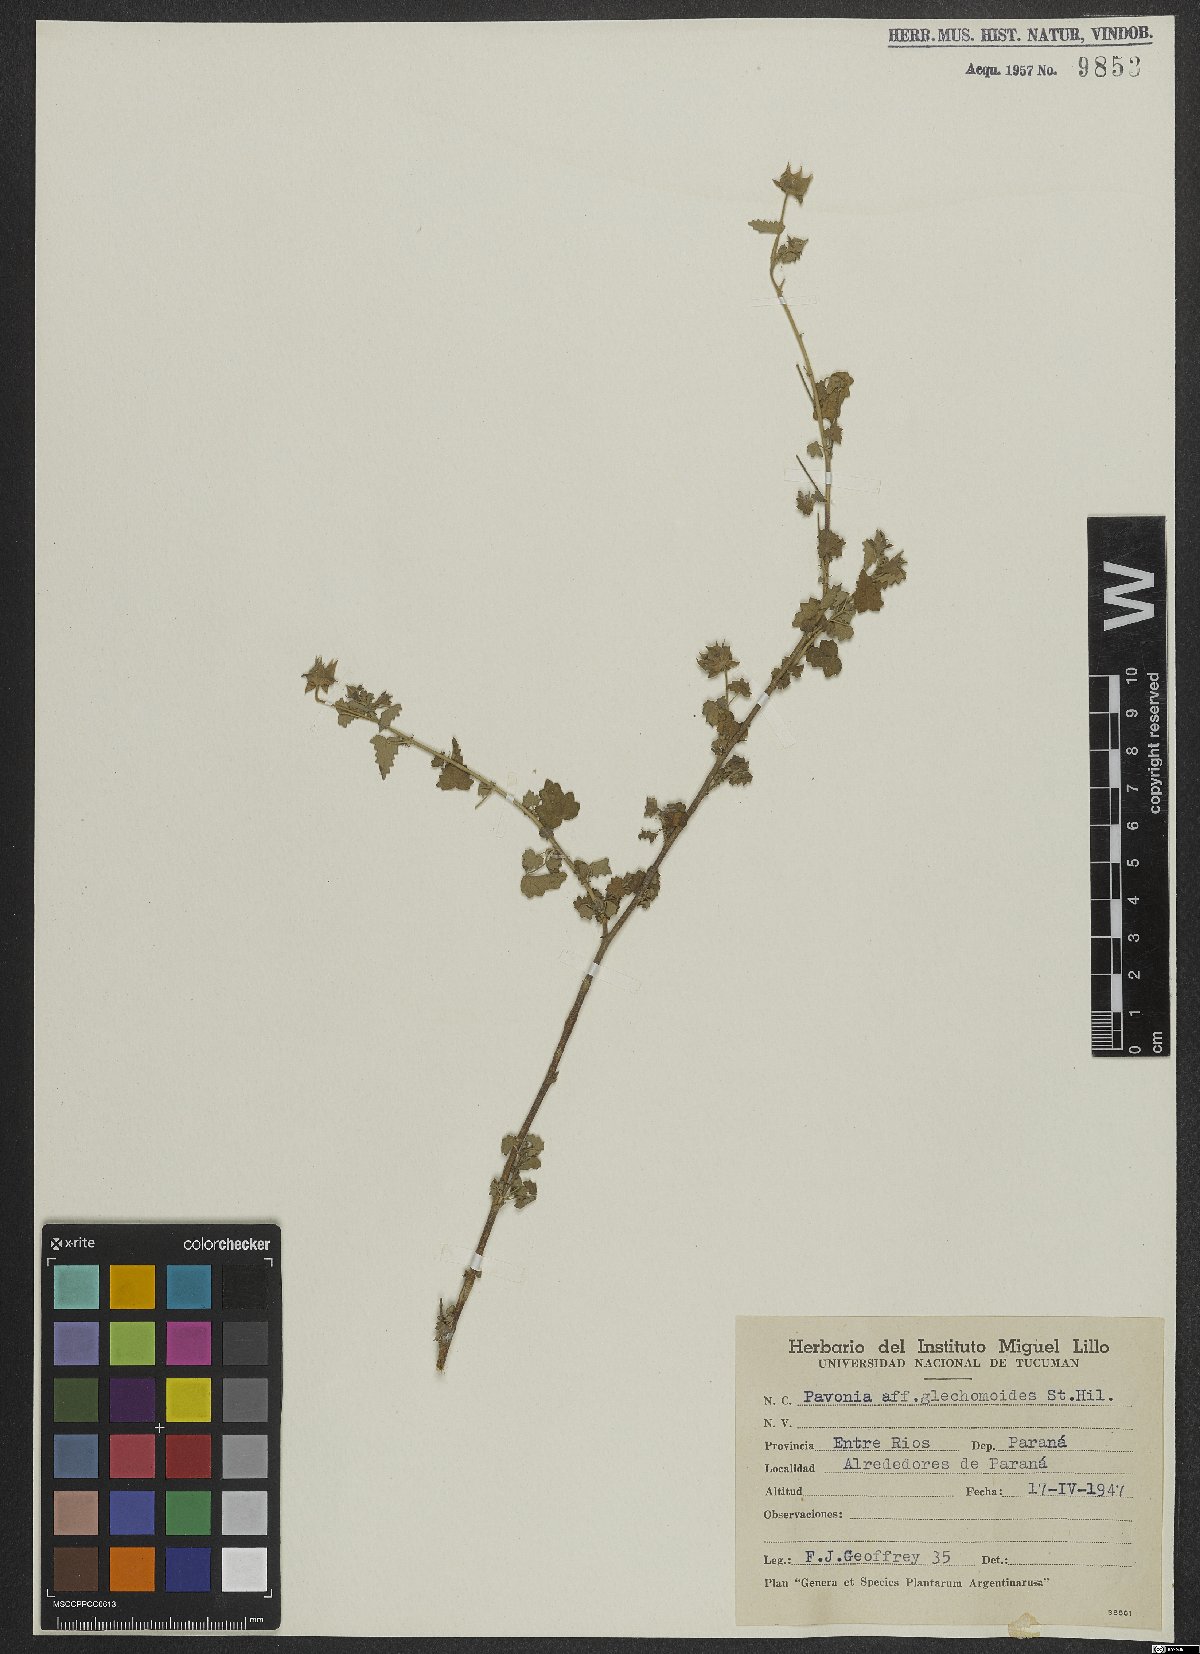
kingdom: Plantae
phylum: Tracheophyta
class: Magnoliopsida
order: Malvales
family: Malvaceae
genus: Pavonia
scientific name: Pavonia glechomoides
